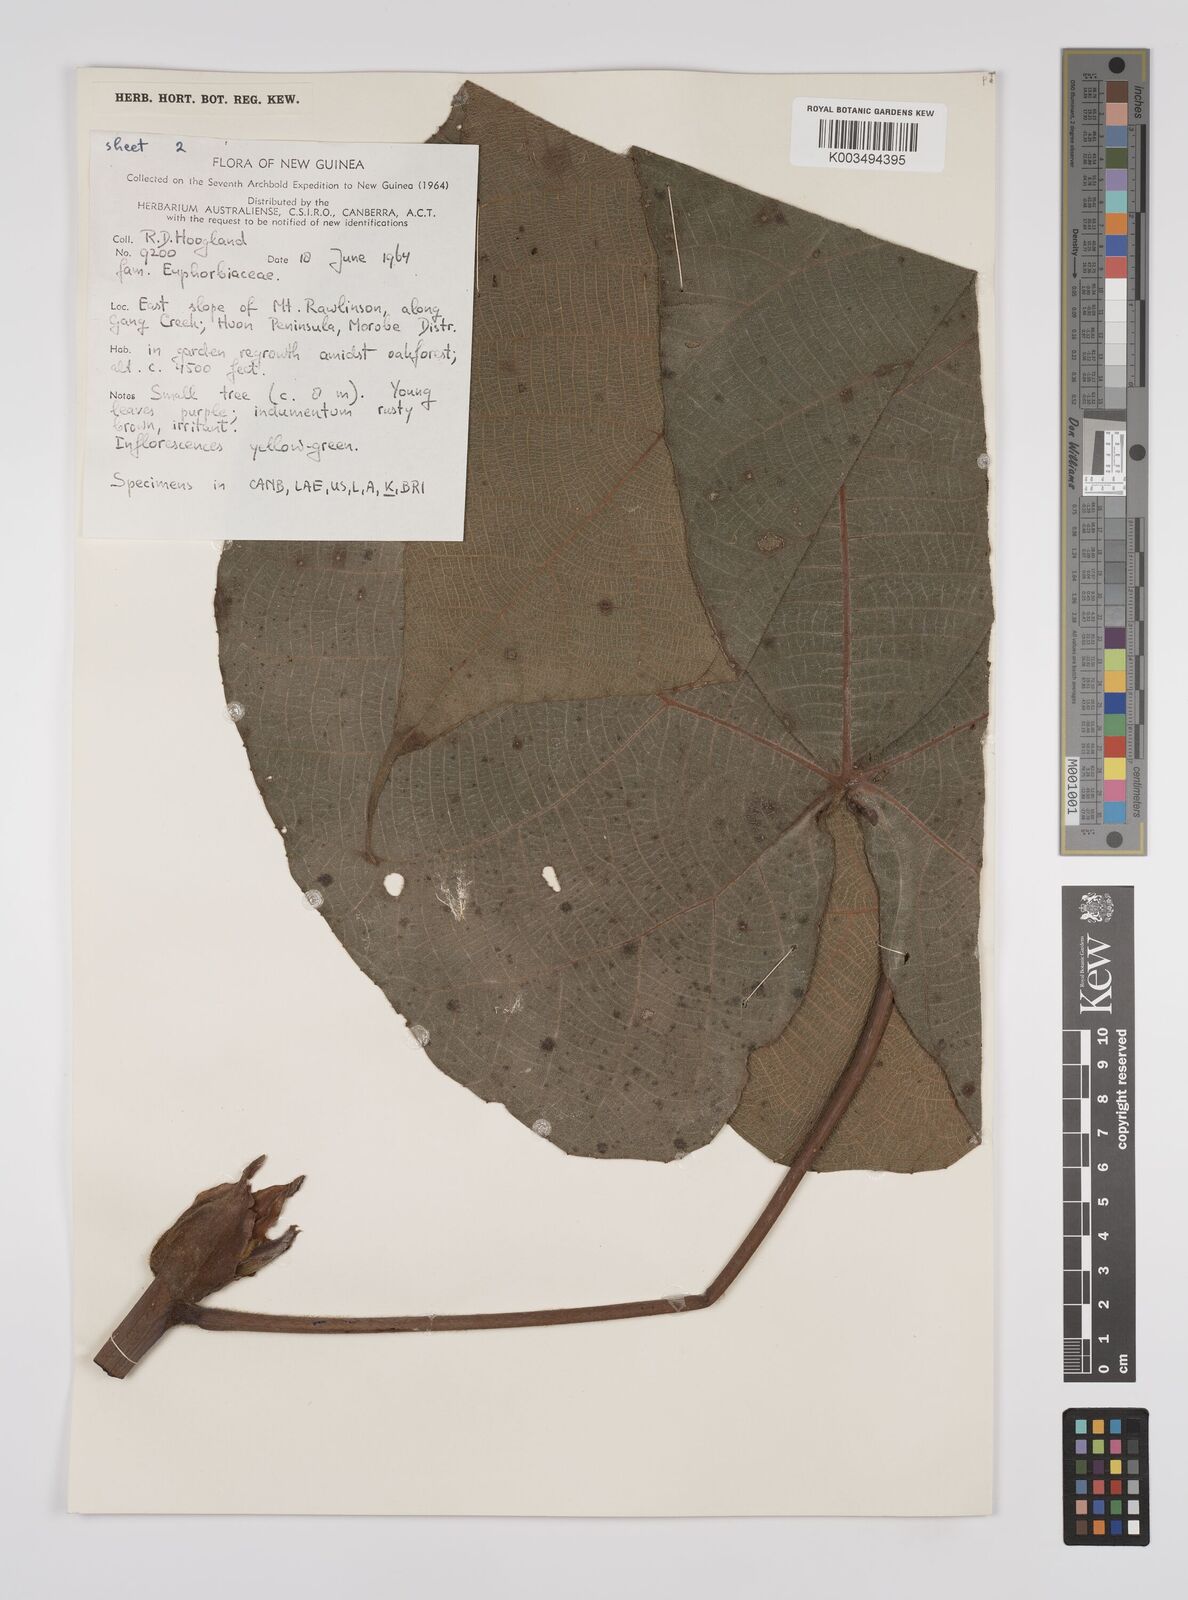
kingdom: Plantae
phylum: Tracheophyta
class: Magnoliopsida
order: Malpighiales
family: Euphorbiaceae
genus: Macaranga
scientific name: Macaranga chrysotricha
